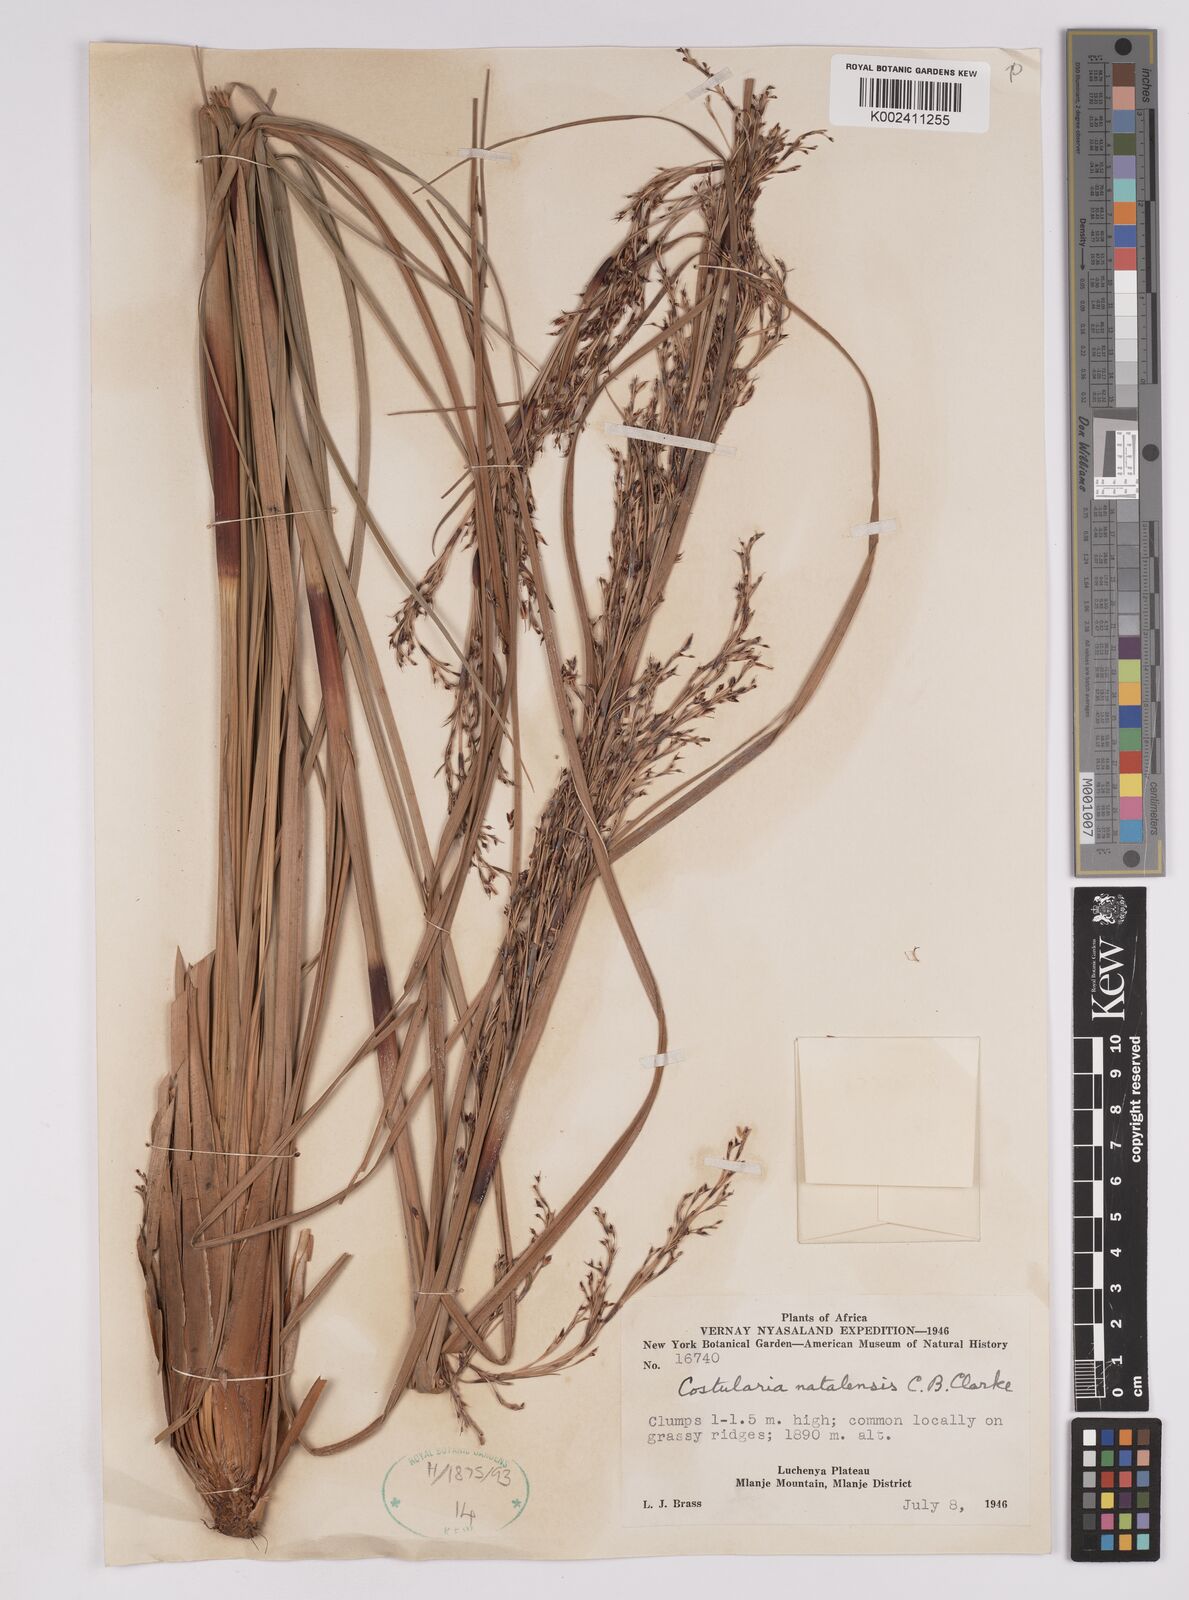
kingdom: Plantae
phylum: Tracheophyta
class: Liliopsida
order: Poales
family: Cyperaceae
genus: Costularia
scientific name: Costularia natalensis
